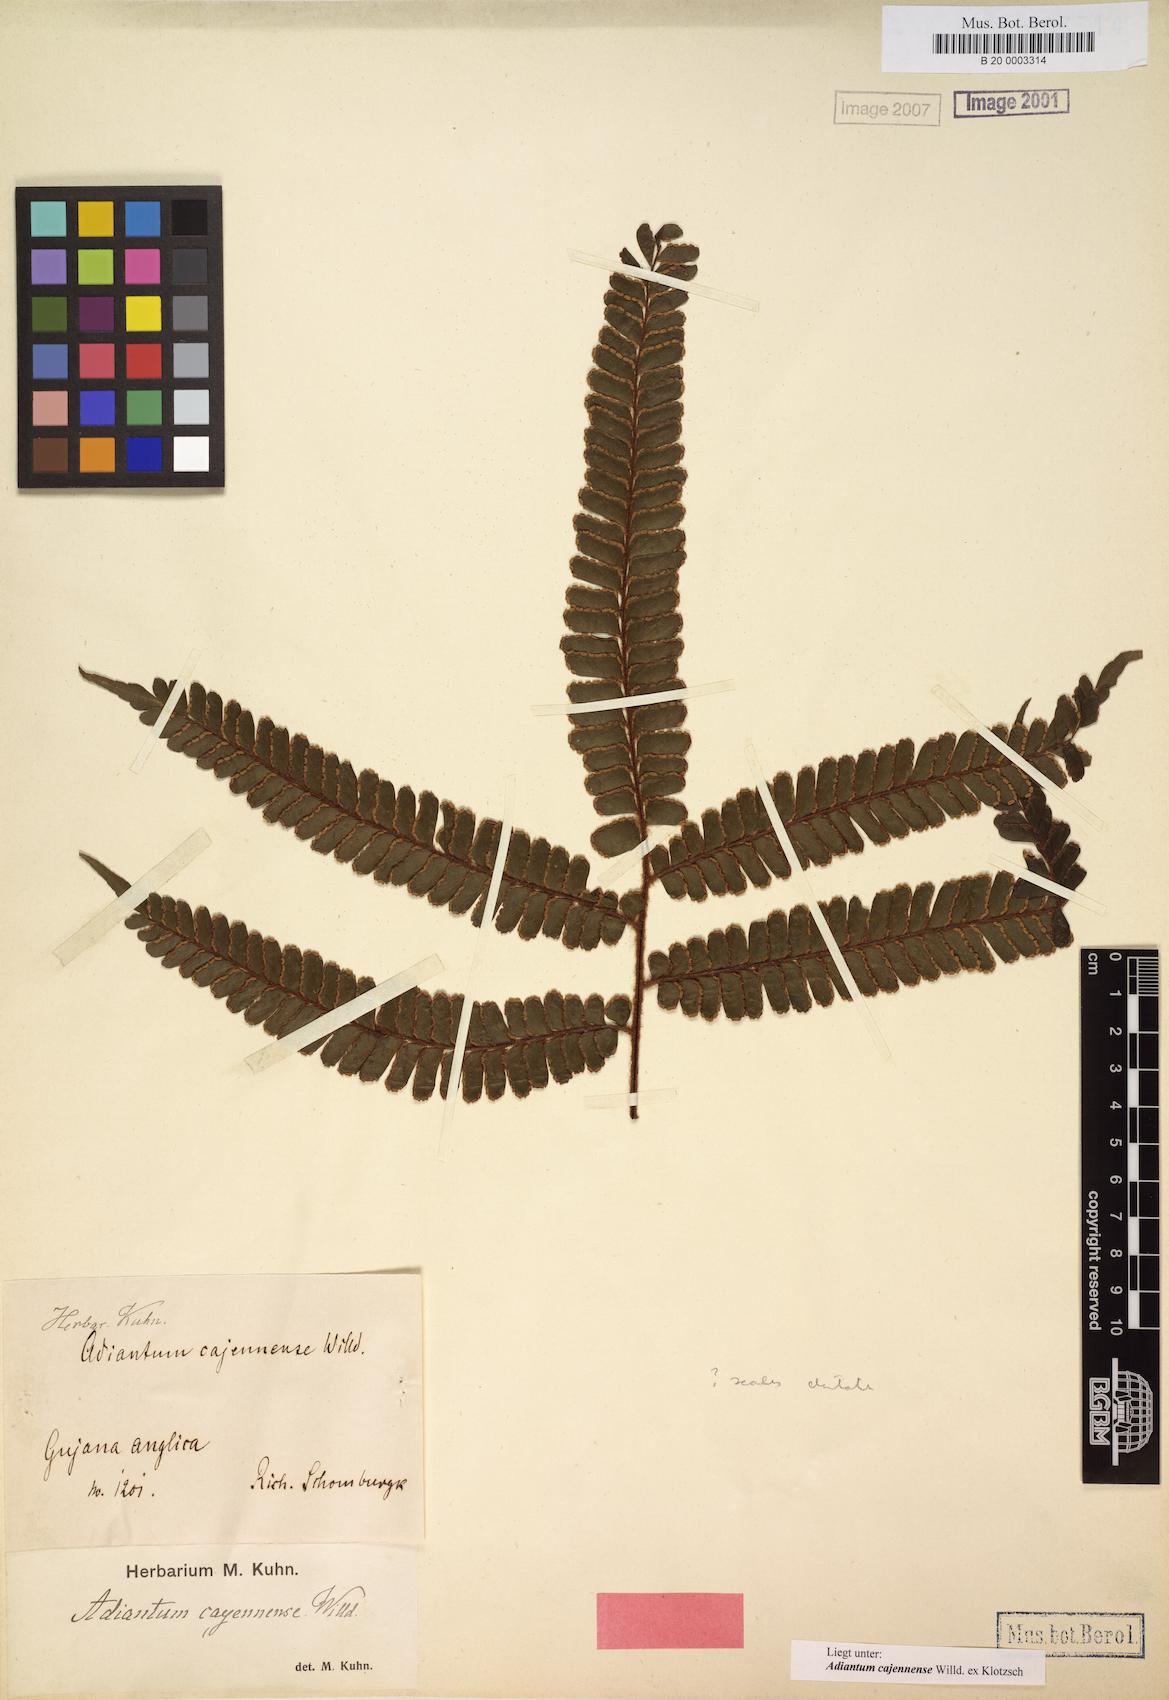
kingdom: Plantae
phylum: Tracheophyta
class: Polypodiopsida
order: Polypodiales
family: Pteridaceae
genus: Adiantum
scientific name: Adiantum cajennense
